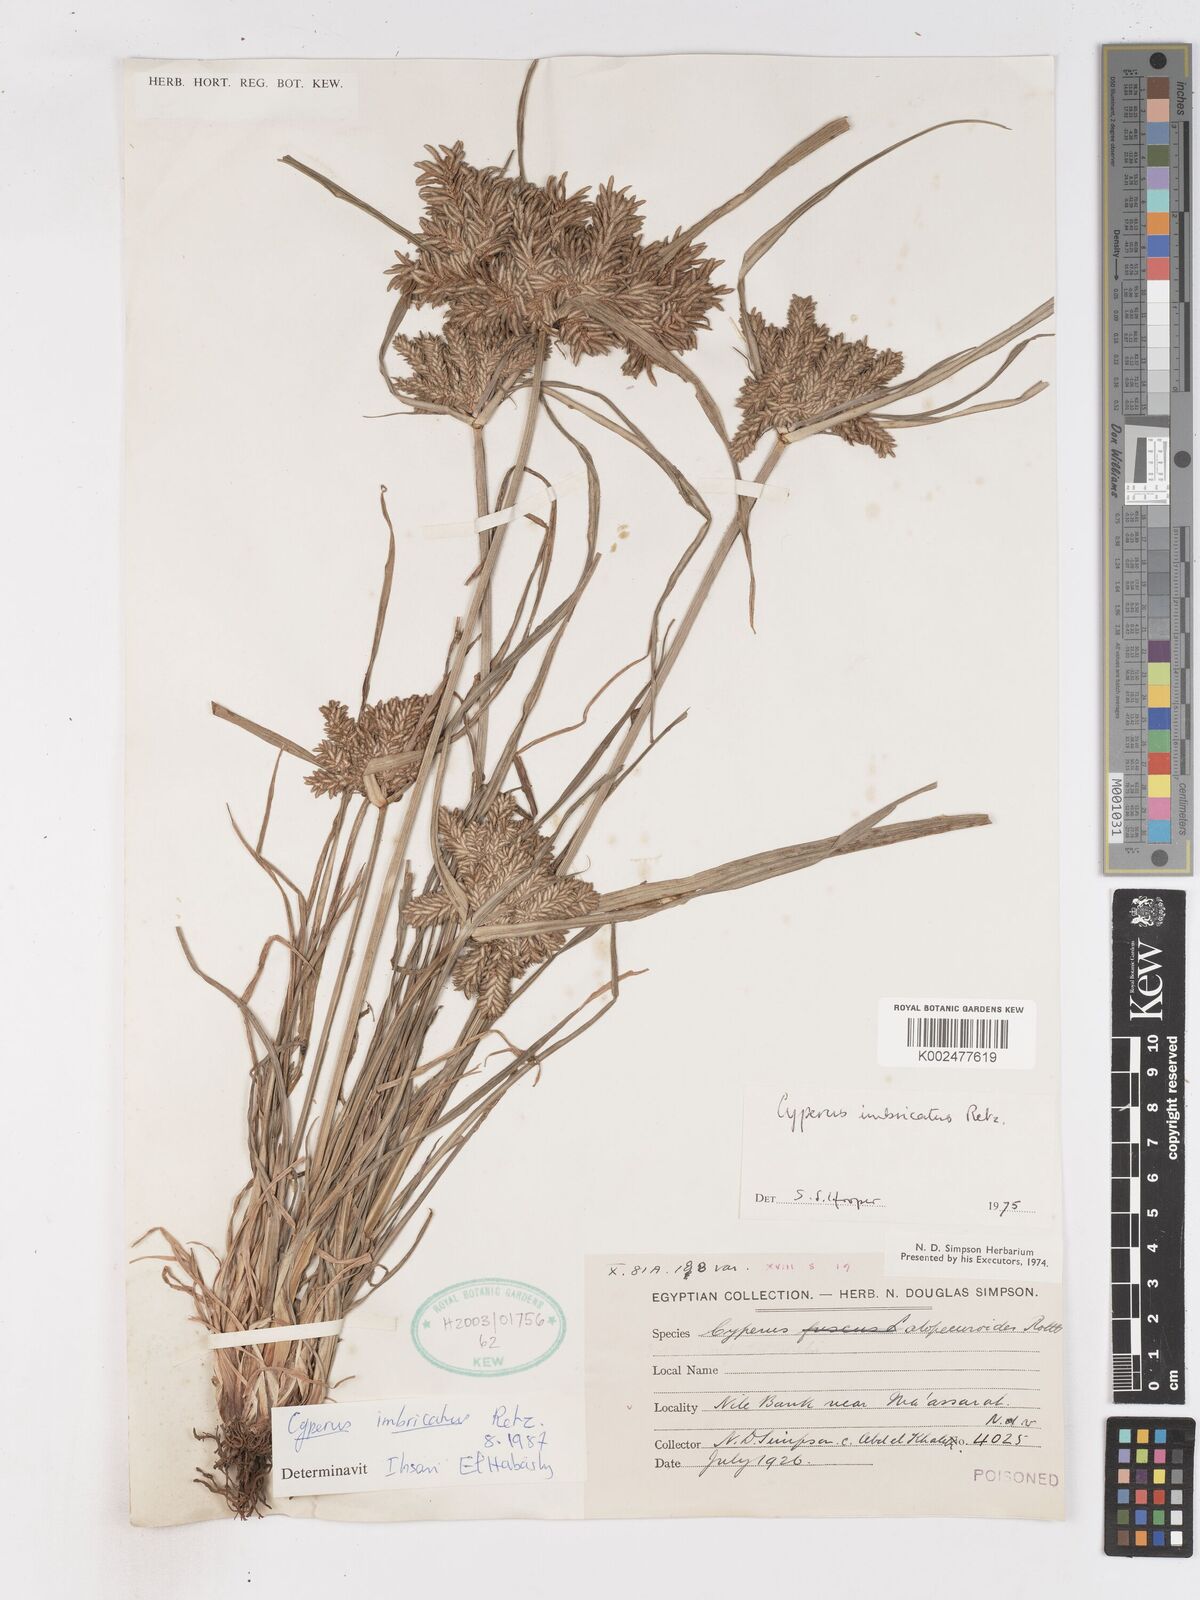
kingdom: Plantae
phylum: Tracheophyta
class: Liliopsida
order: Poales
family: Cyperaceae
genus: Cyperus
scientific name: Cyperus imbricatus
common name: Shingle flatsedge
